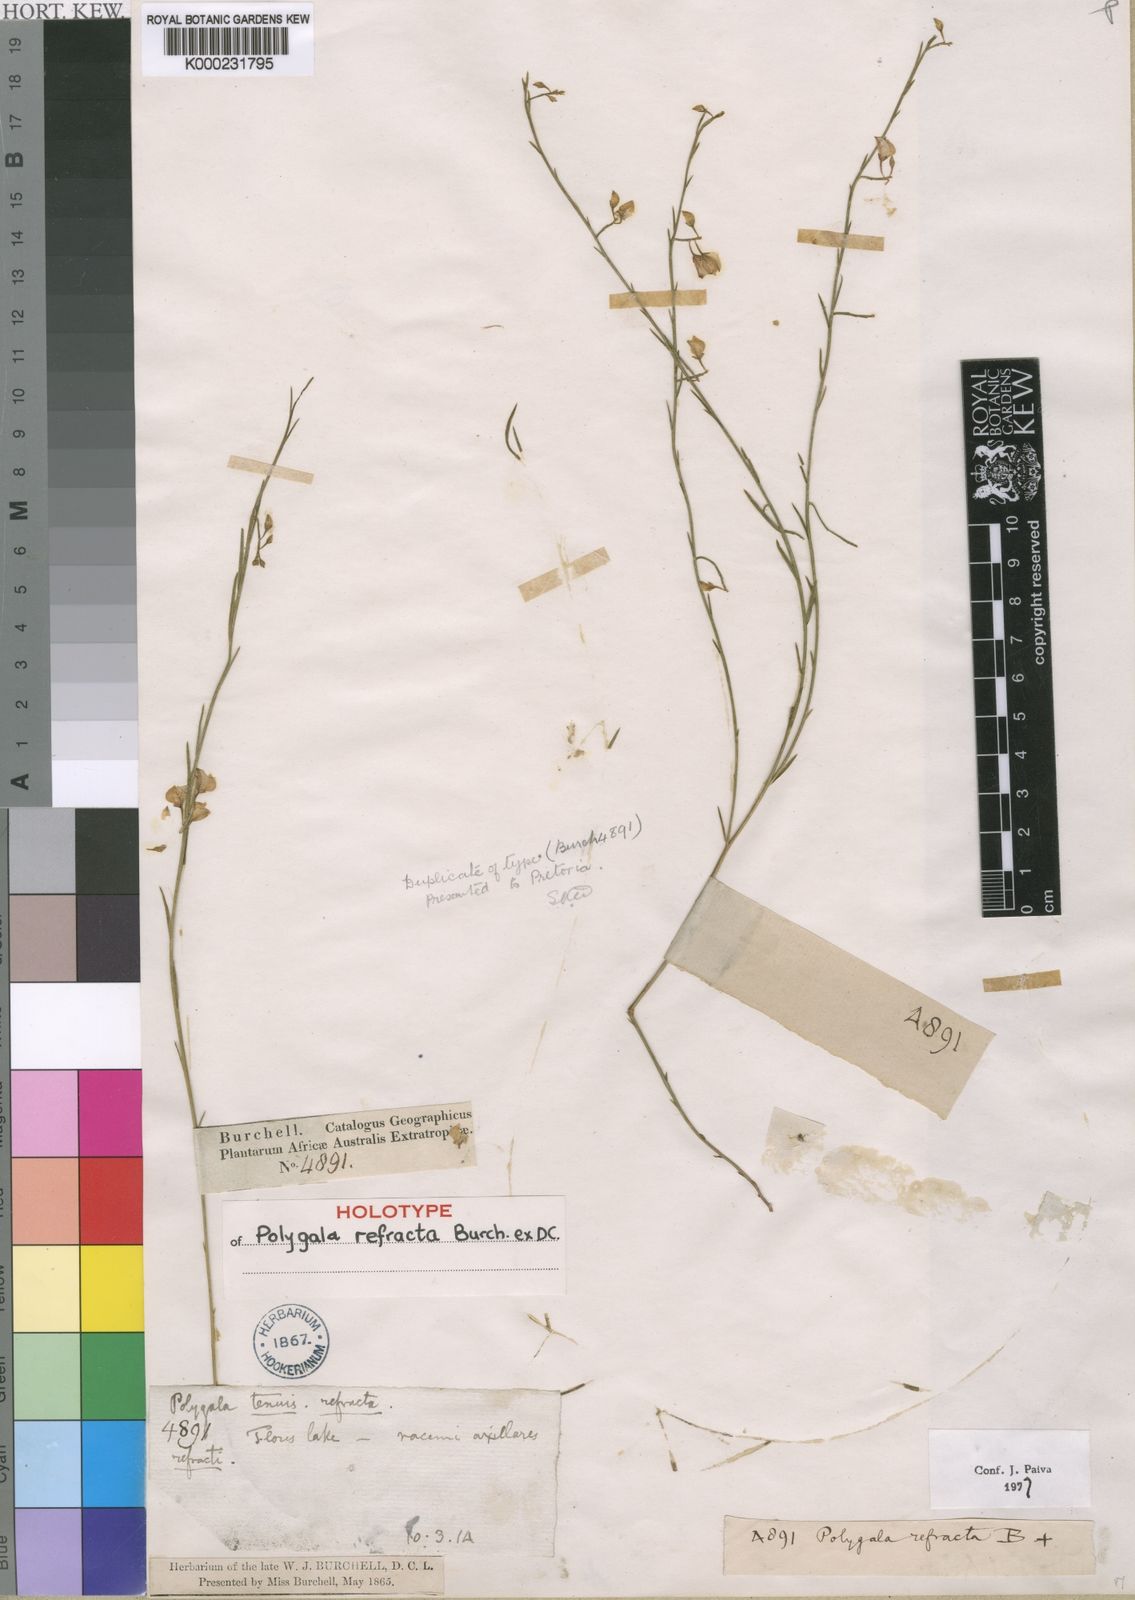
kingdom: Plantae
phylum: Tracheophyta
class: Magnoliopsida
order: Fabales
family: Polygalaceae
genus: Polygala
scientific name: Polygala
